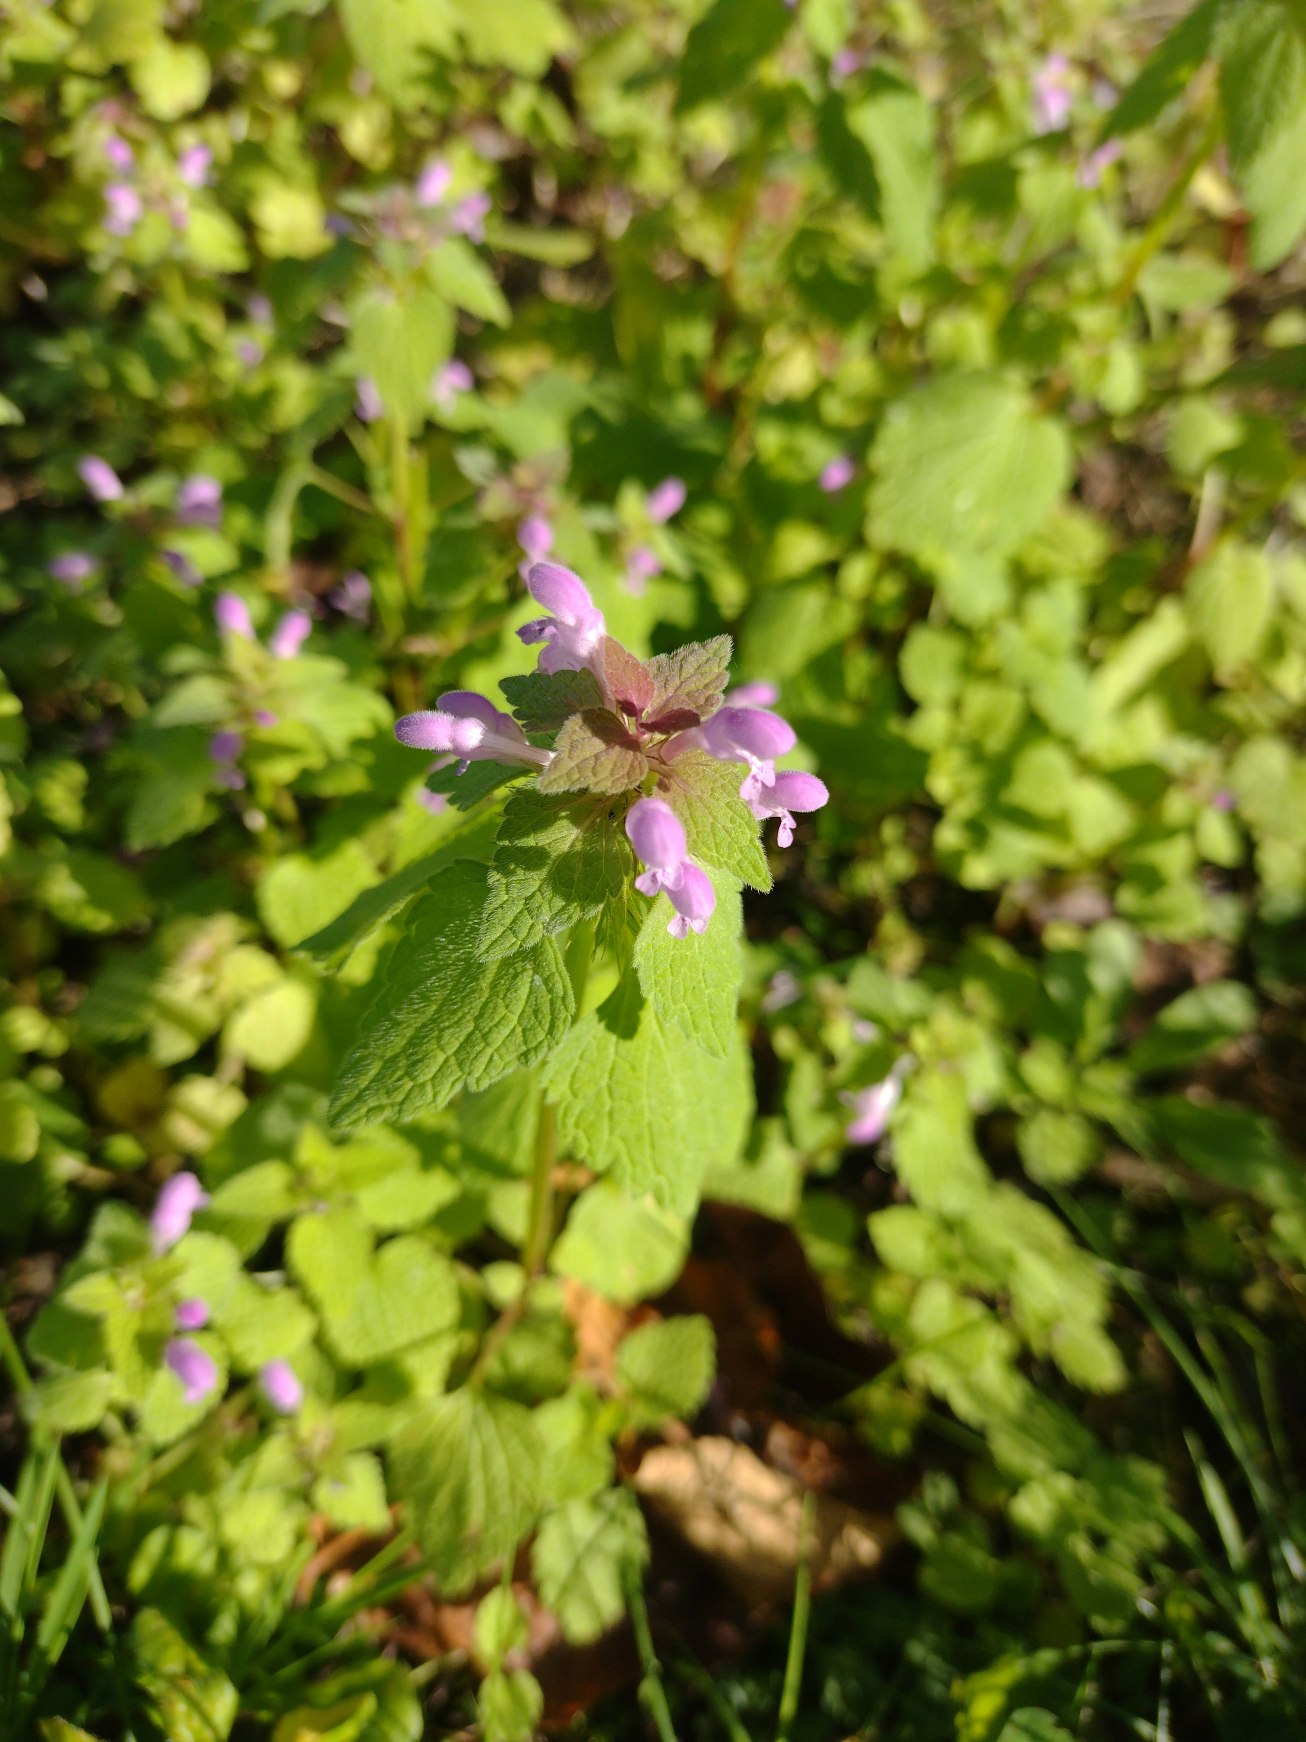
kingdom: Plantae
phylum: Tracheophyta
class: Magnoliopsida
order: Lamiales
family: Lamiaceae
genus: Lamium
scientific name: Lamium purpureum
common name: Rød tvetand
